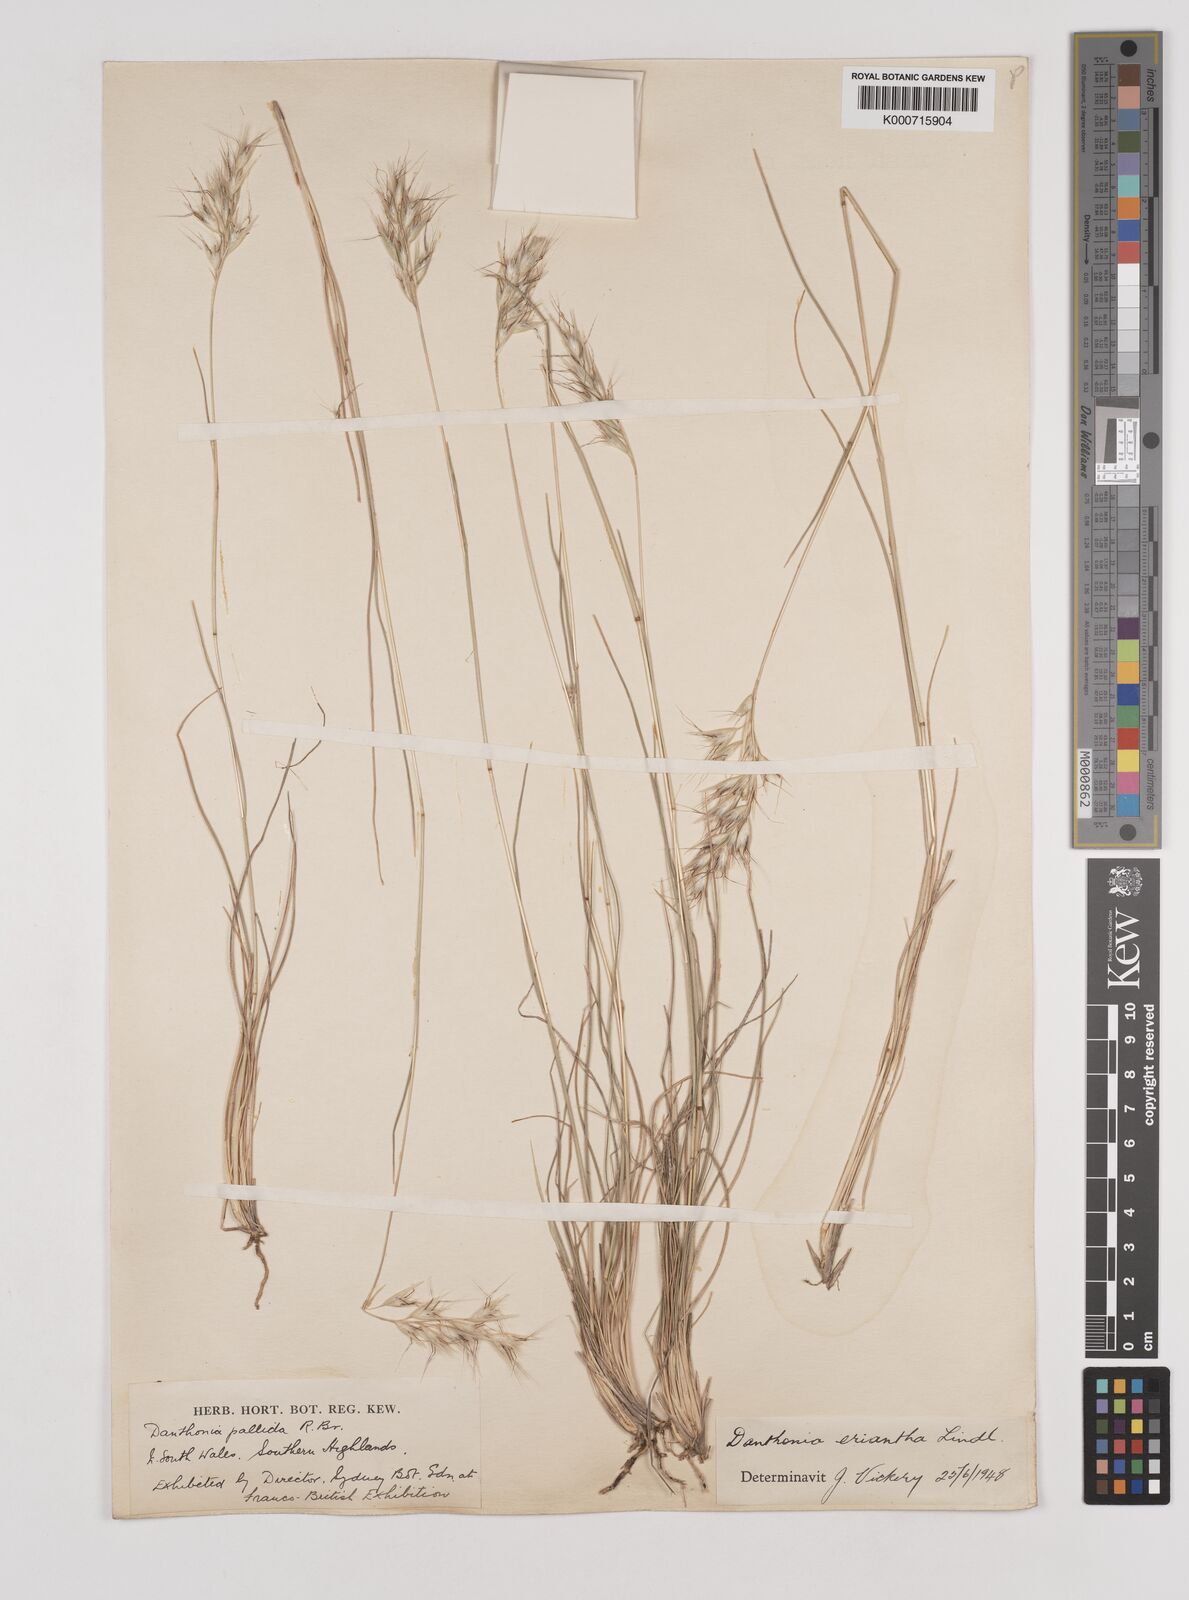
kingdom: Plantae
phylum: Tracheophyta
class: Liliopsida
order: Poales
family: Poaceae
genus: Rytidosperma
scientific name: Rytidosperma erianthum
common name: Hill wallaby grass
